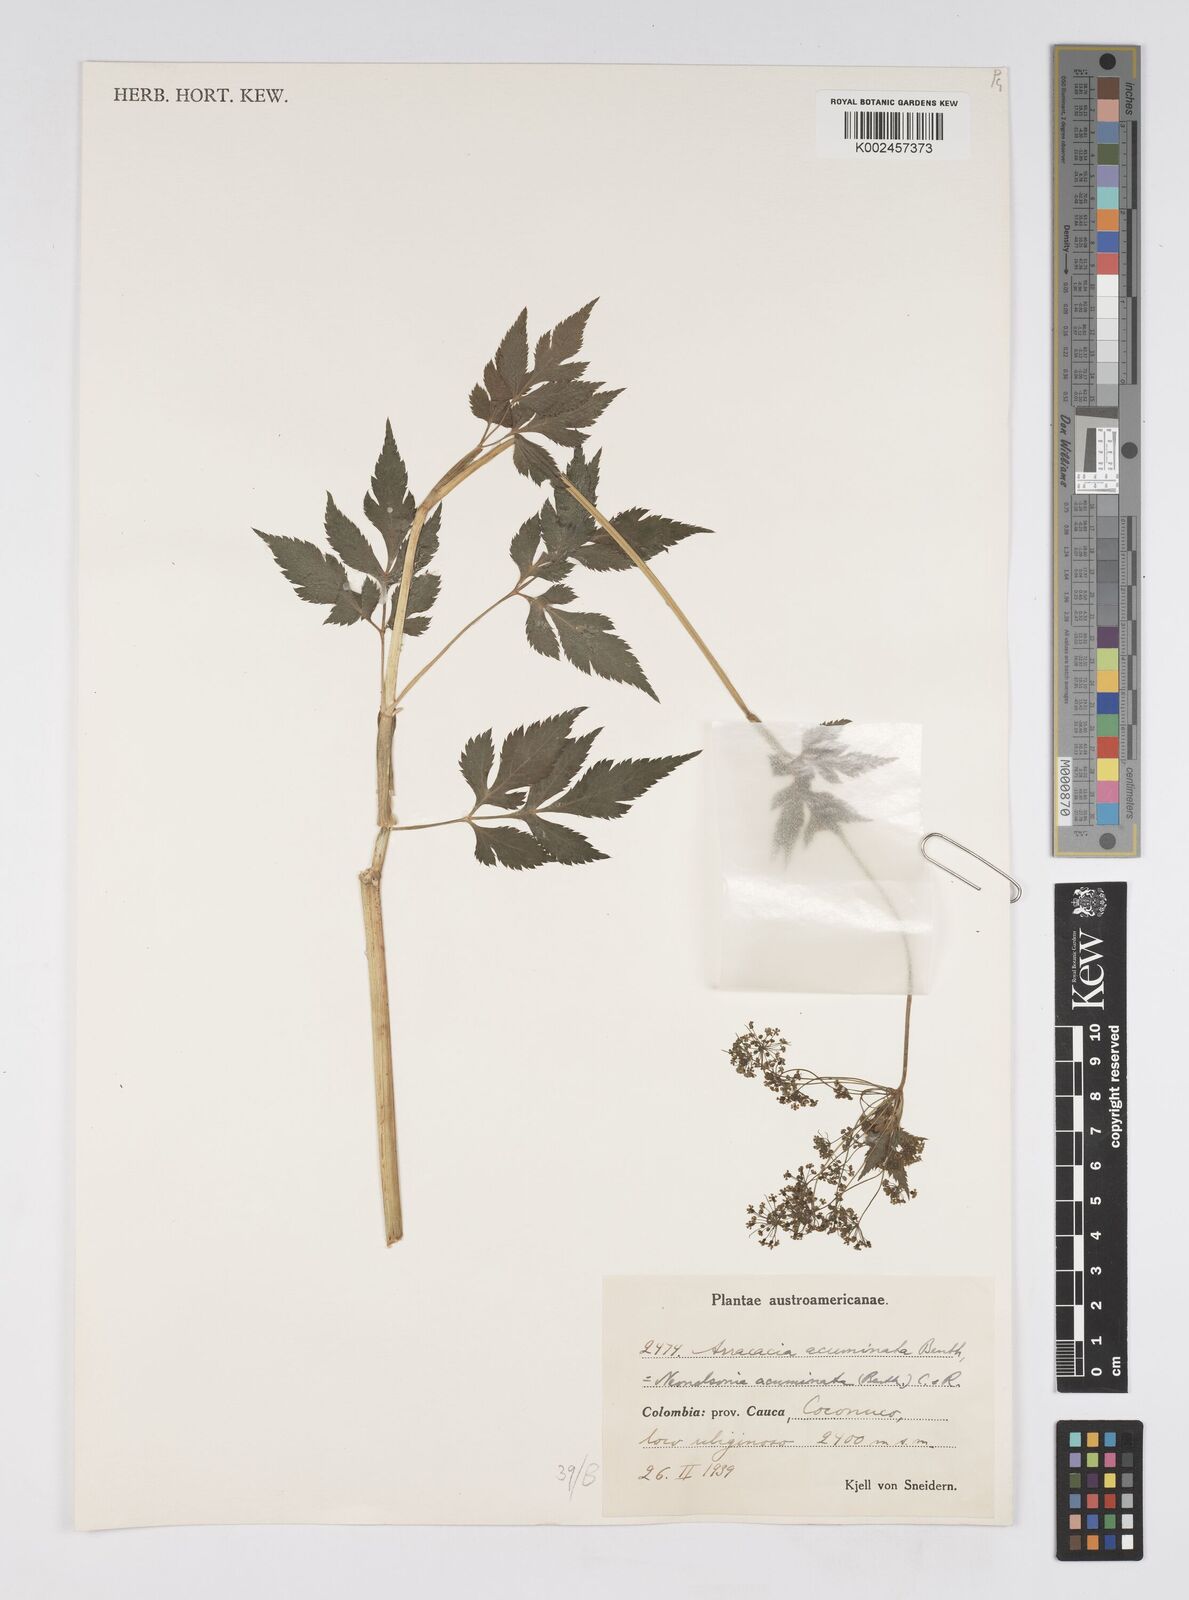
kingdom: Plantae
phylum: Tracheophyta
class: Magnoliopsida
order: Apiales
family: Apiaceae
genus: Neonelsonia
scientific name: Neonelsonia acuminata
